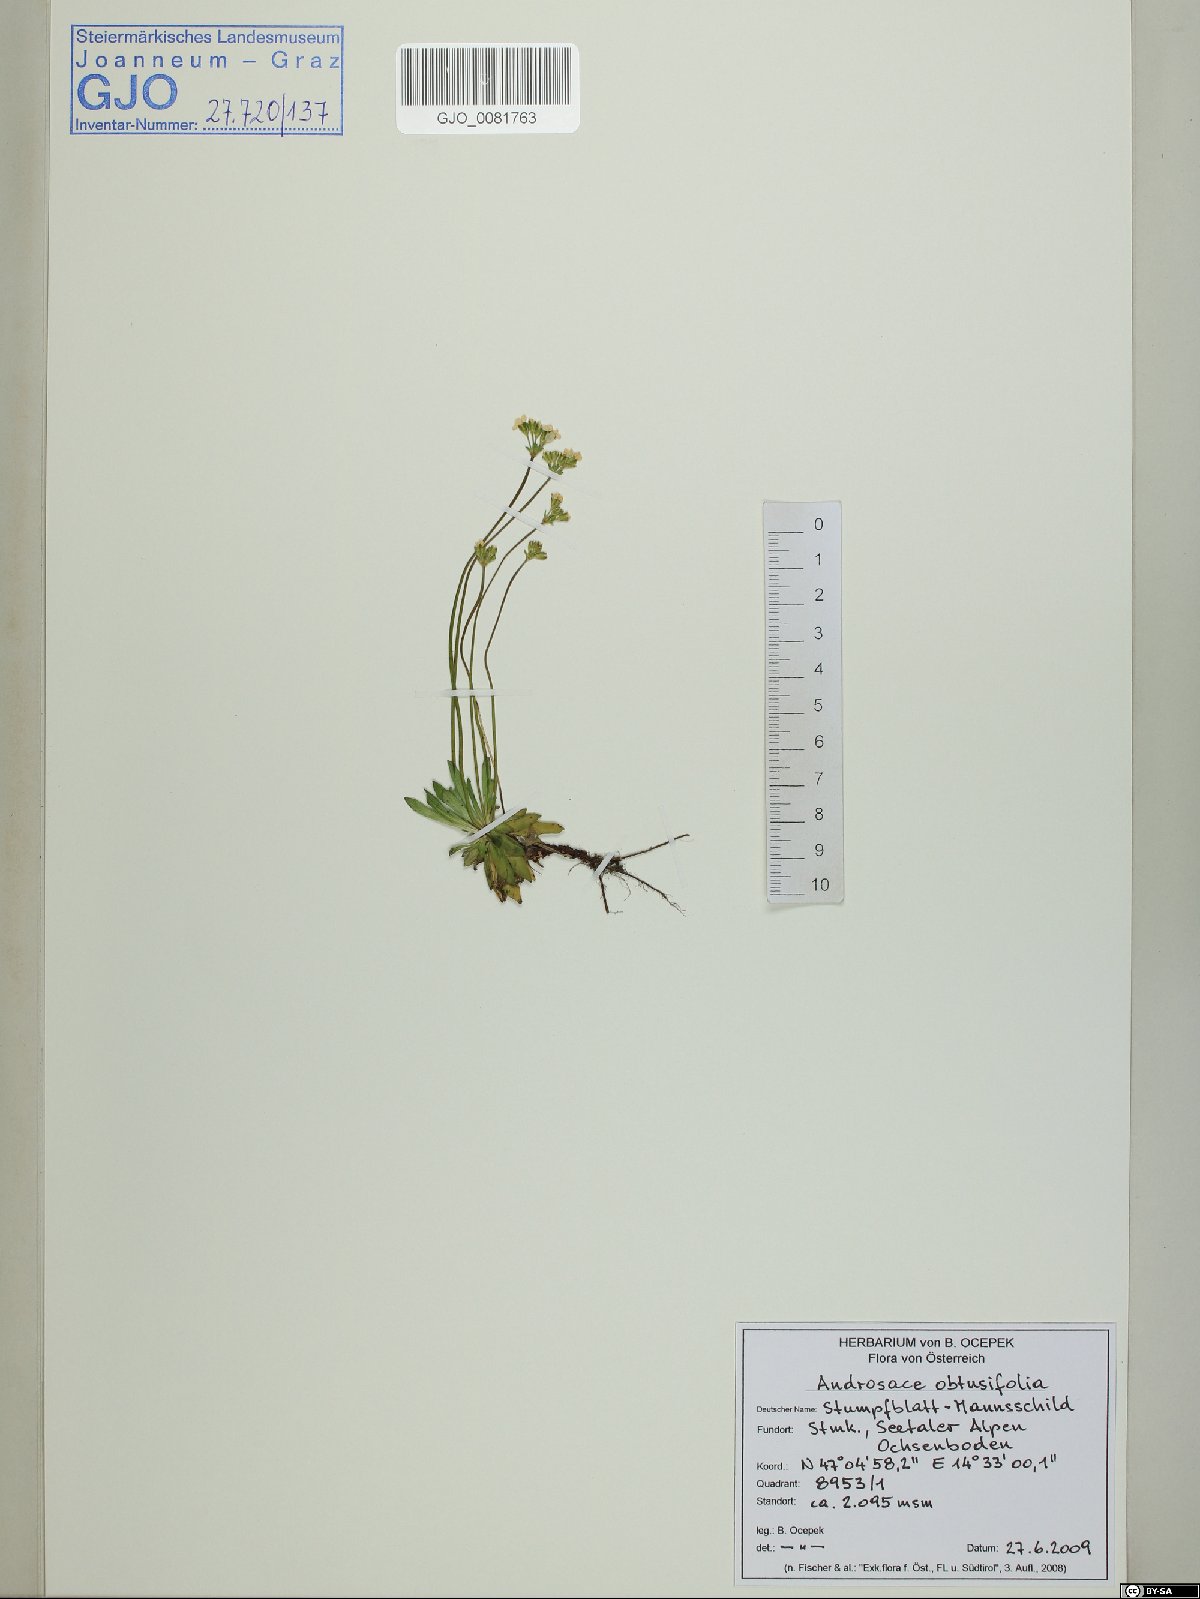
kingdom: Plantae
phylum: Tracheophyta
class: Magnoliopsida
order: Ericales
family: Primulaceae
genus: Androsace
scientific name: Androsace obtusifolia
